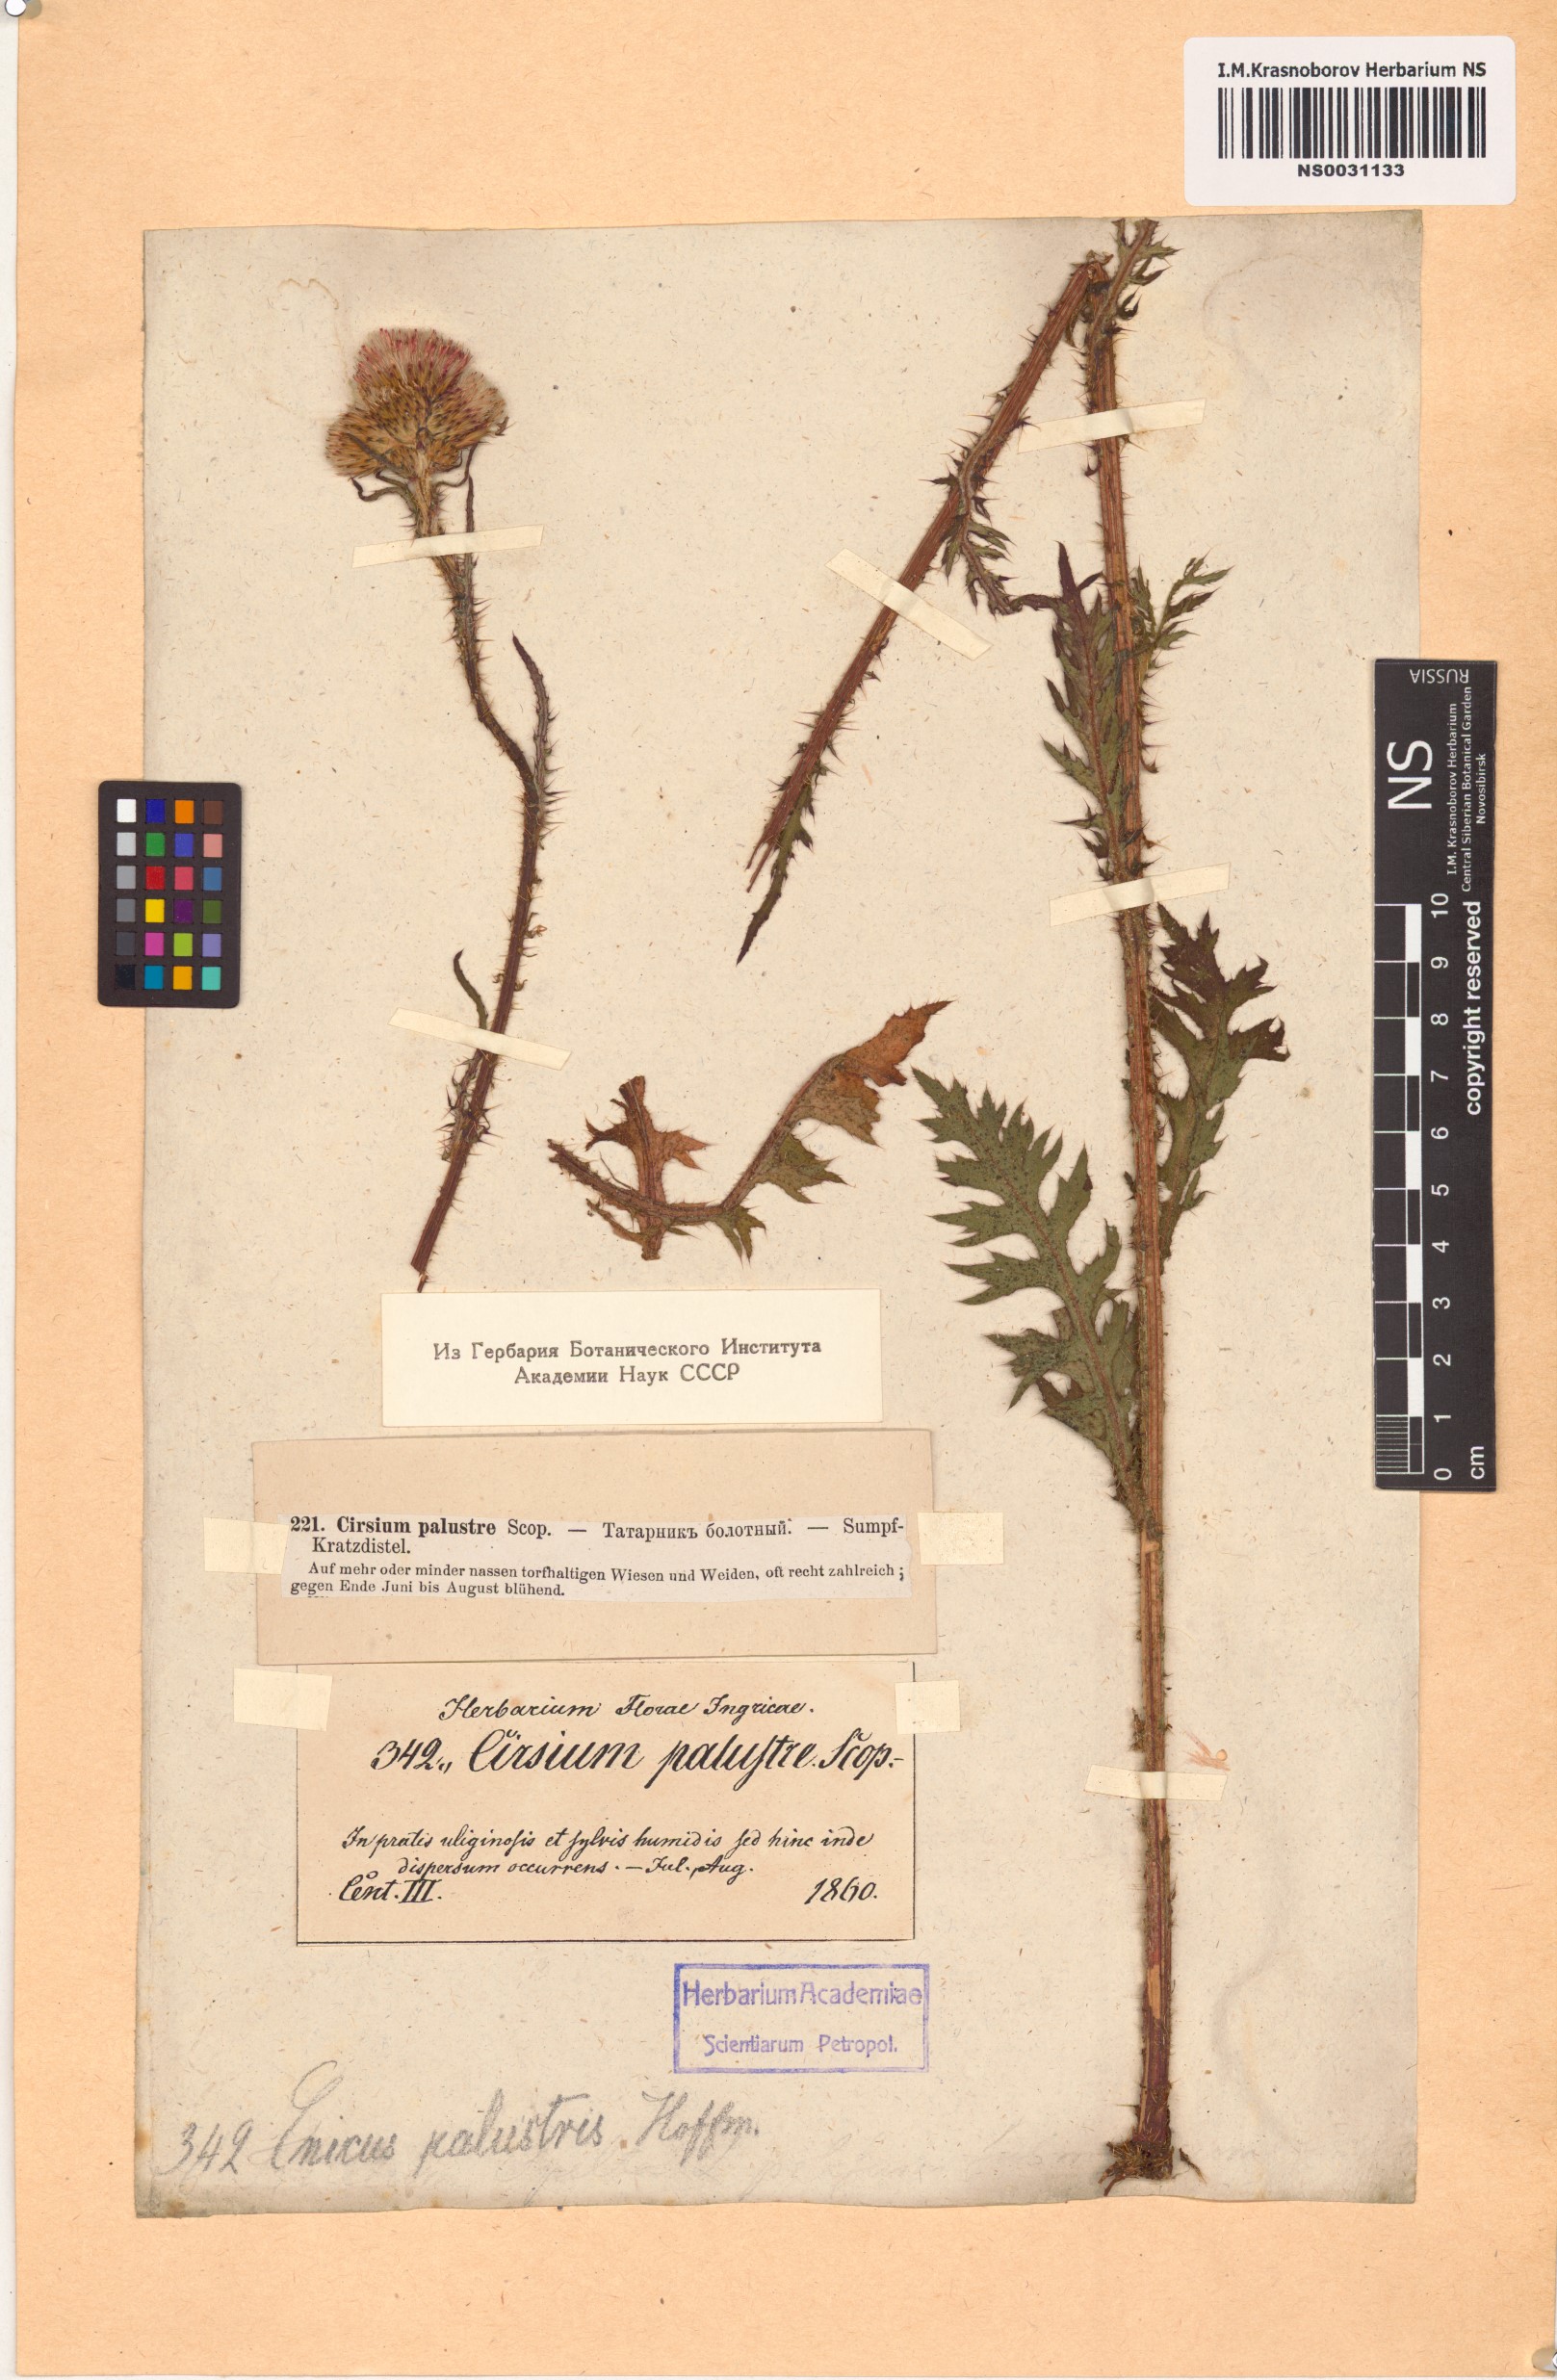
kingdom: Plantae
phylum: Tracheophyta
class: Magnoliopsida
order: Asterales
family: Asteraceae
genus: Cirsium
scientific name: Cirsium palustre
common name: Marsh thistle
